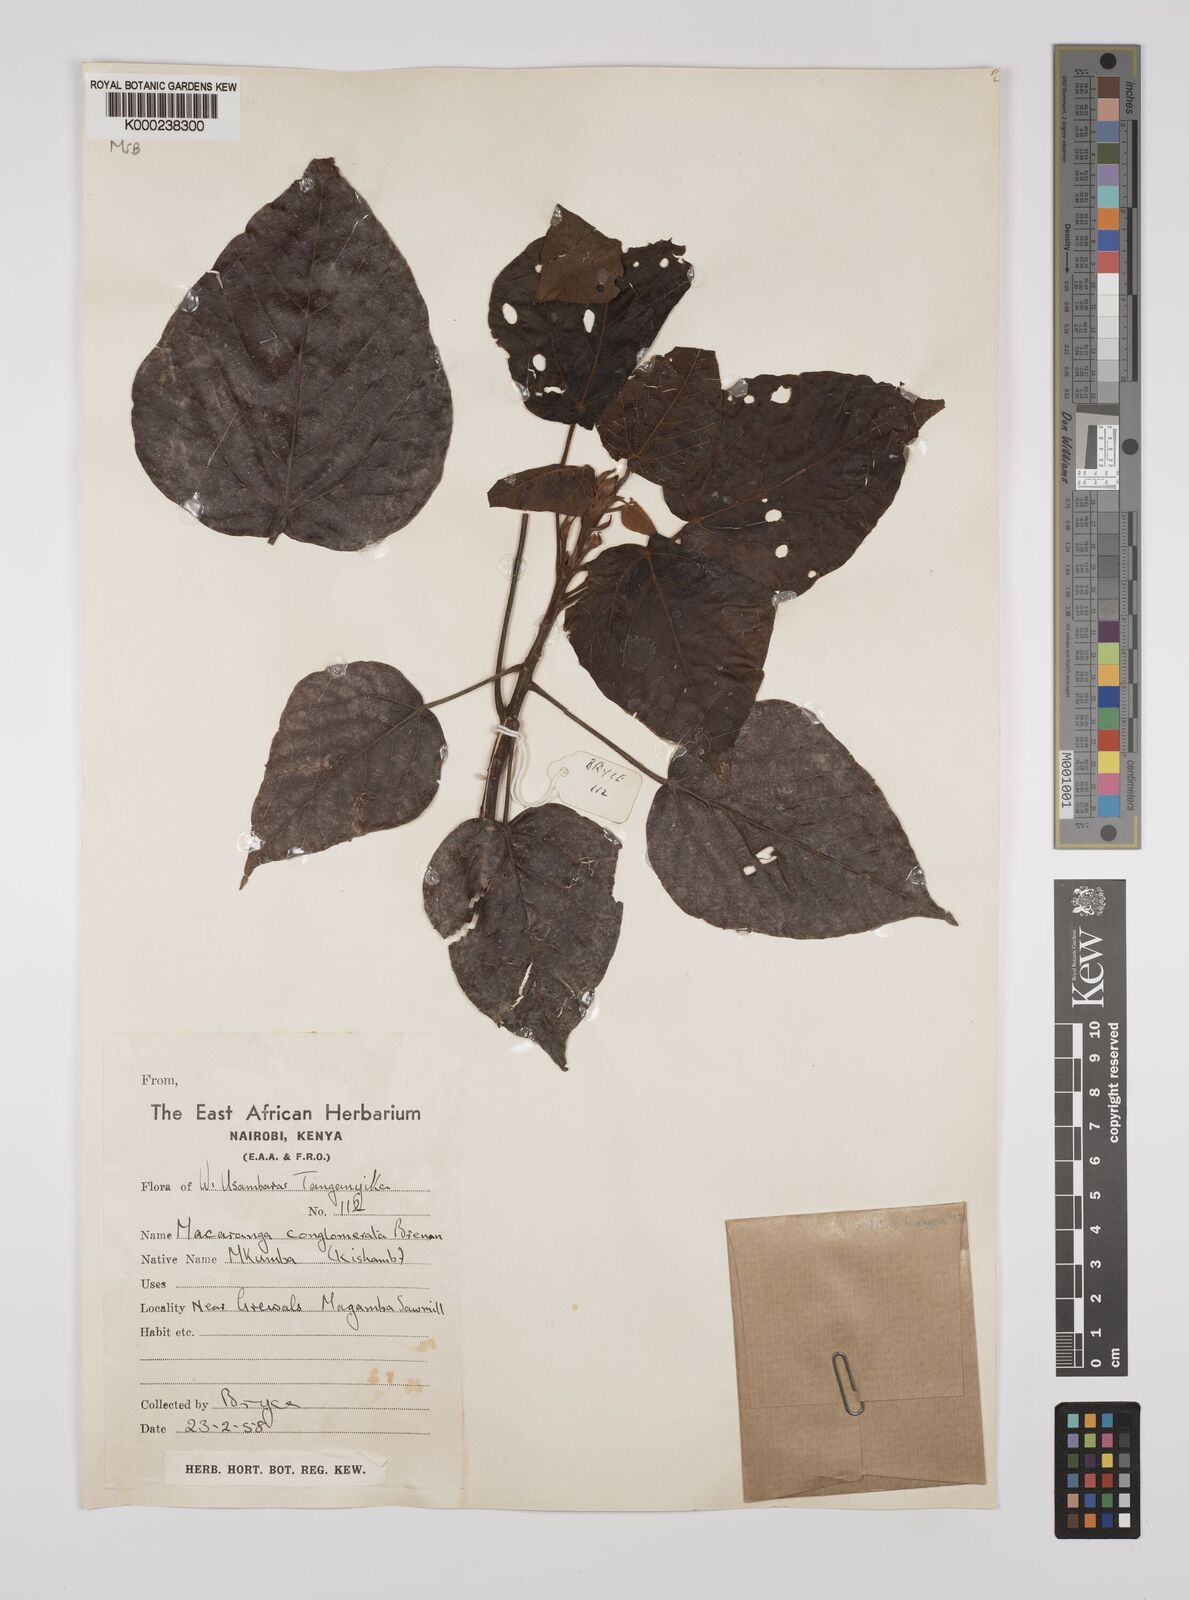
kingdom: Plantae
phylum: Tracheophyta
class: Magnoliopsida
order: Malpighiales
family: Euphorbiaceae
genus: Macaranga
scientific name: Macaranga conglomerata
